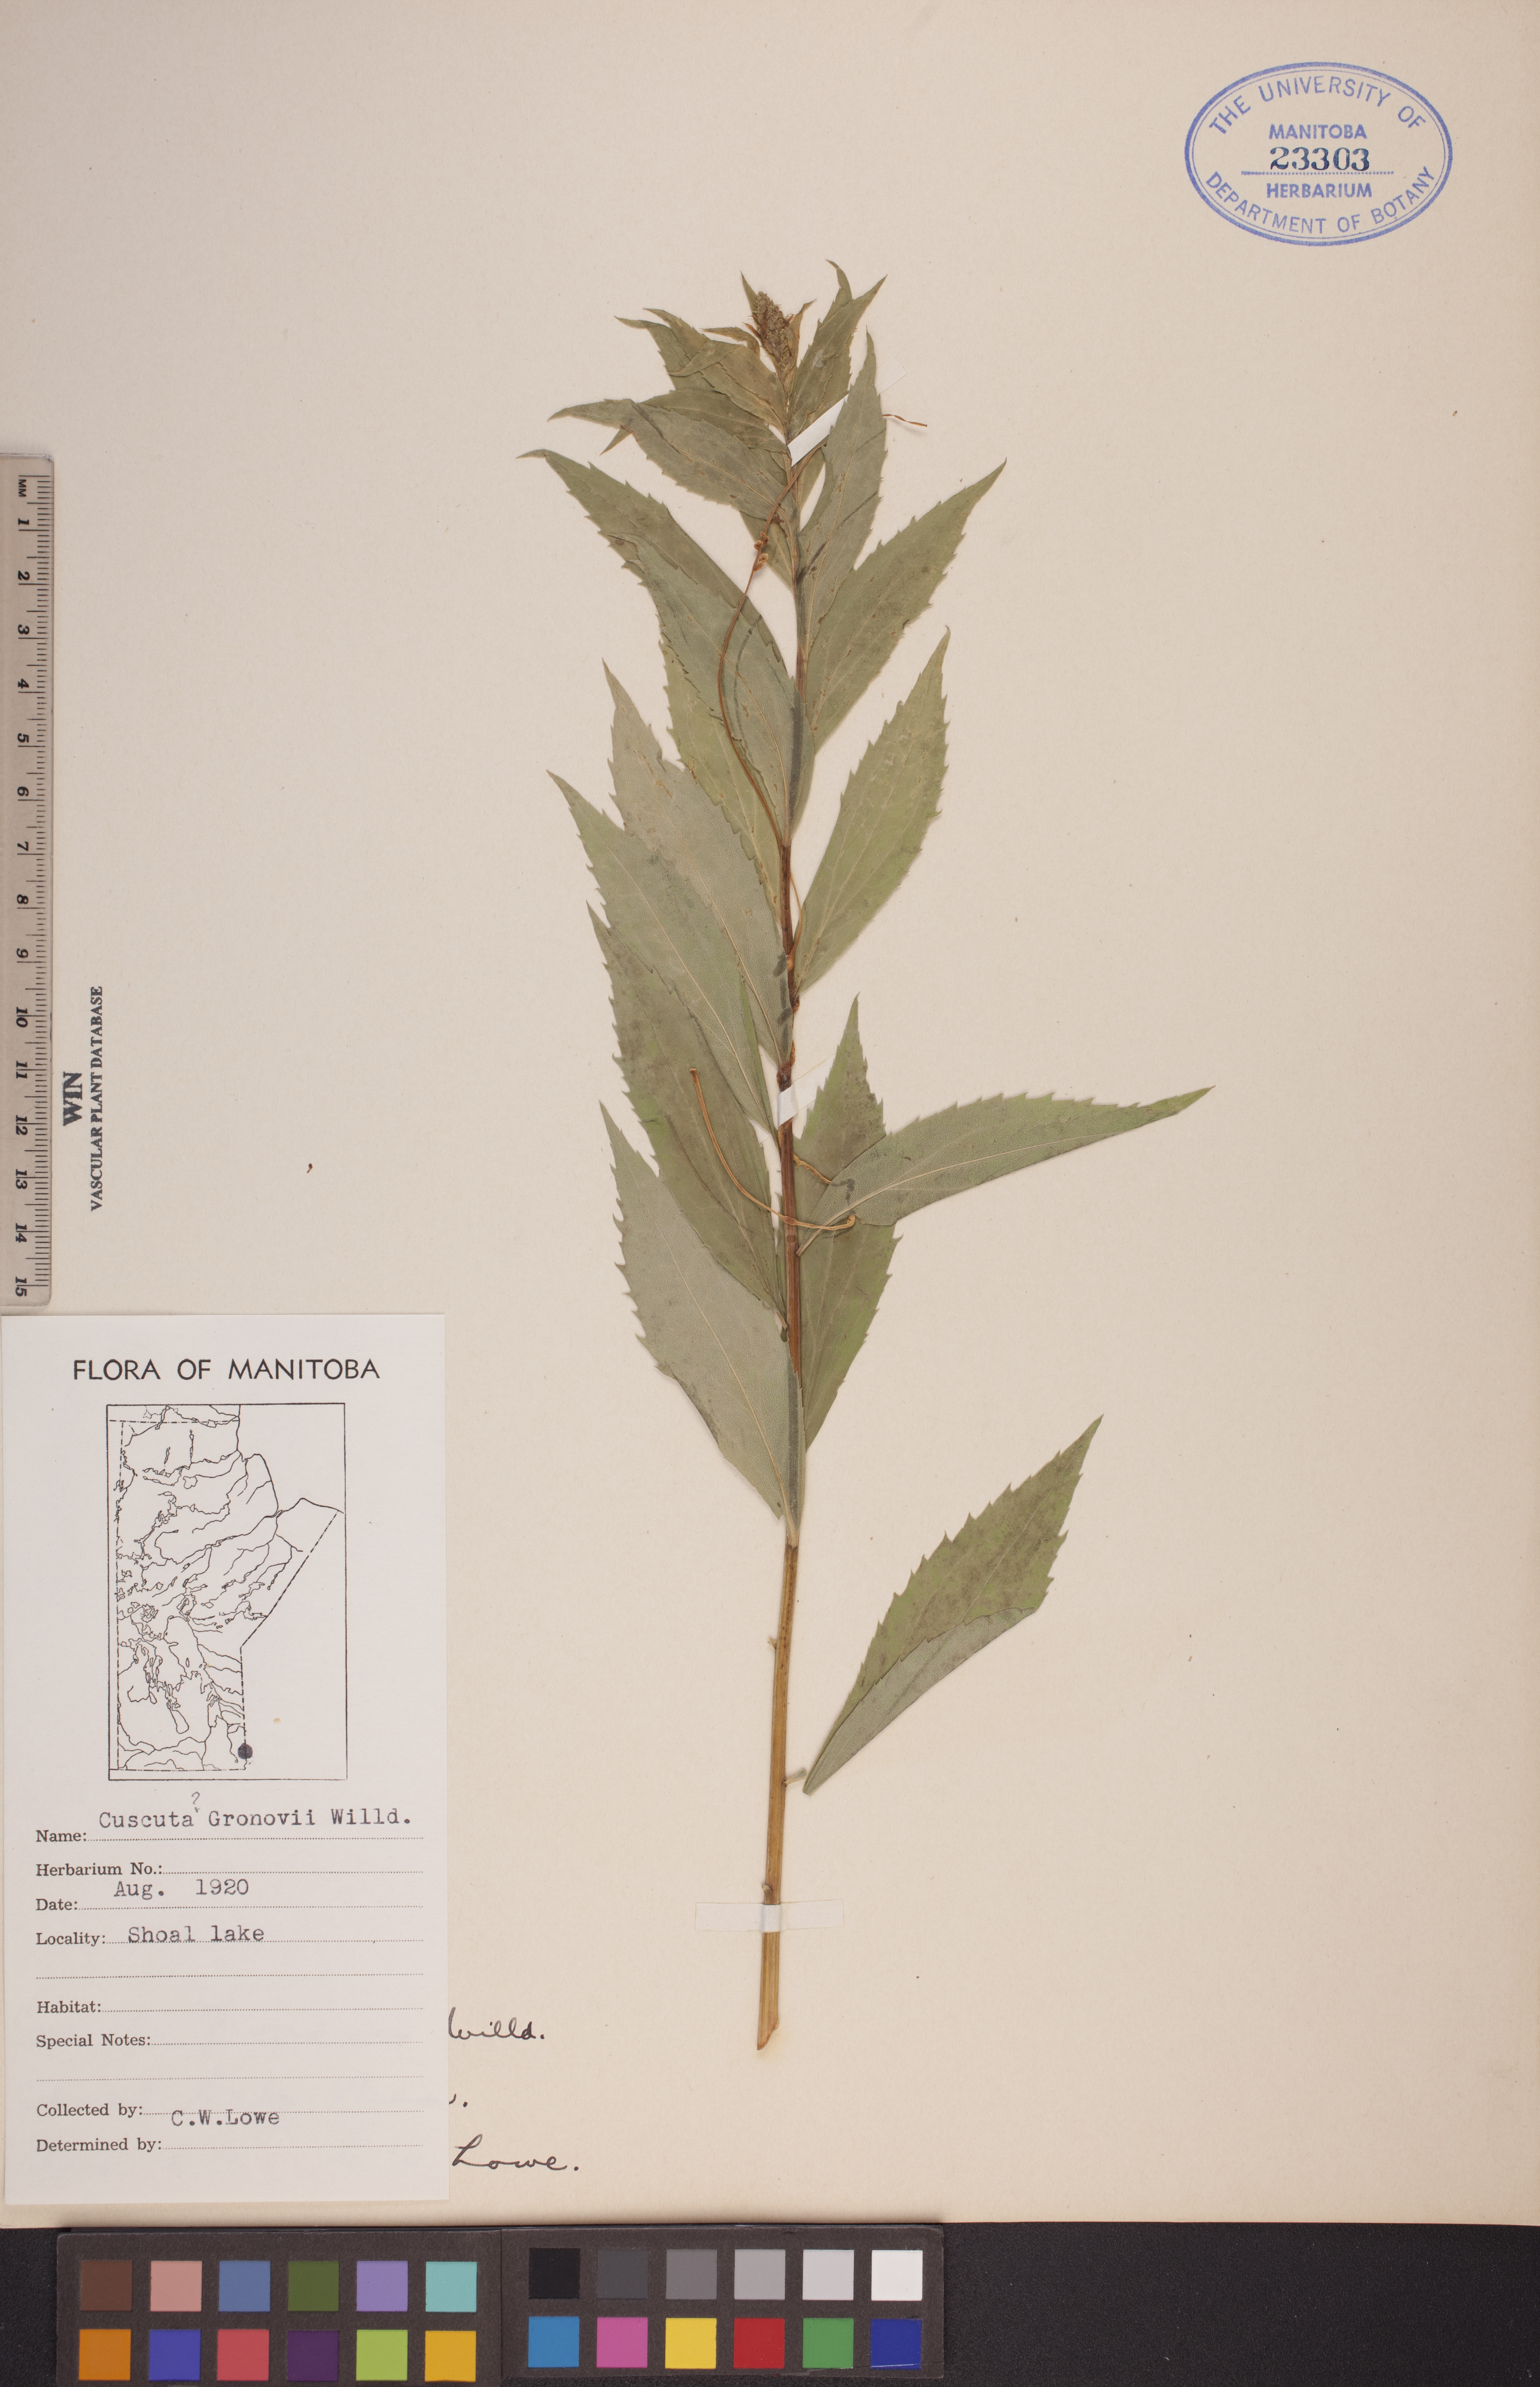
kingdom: Plantae
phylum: Tracheophyta
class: Magnoliopsida
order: Solanales
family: Convolvulaceae
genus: Cuscuta
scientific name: Cuscuta gronovii
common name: Common dodder
